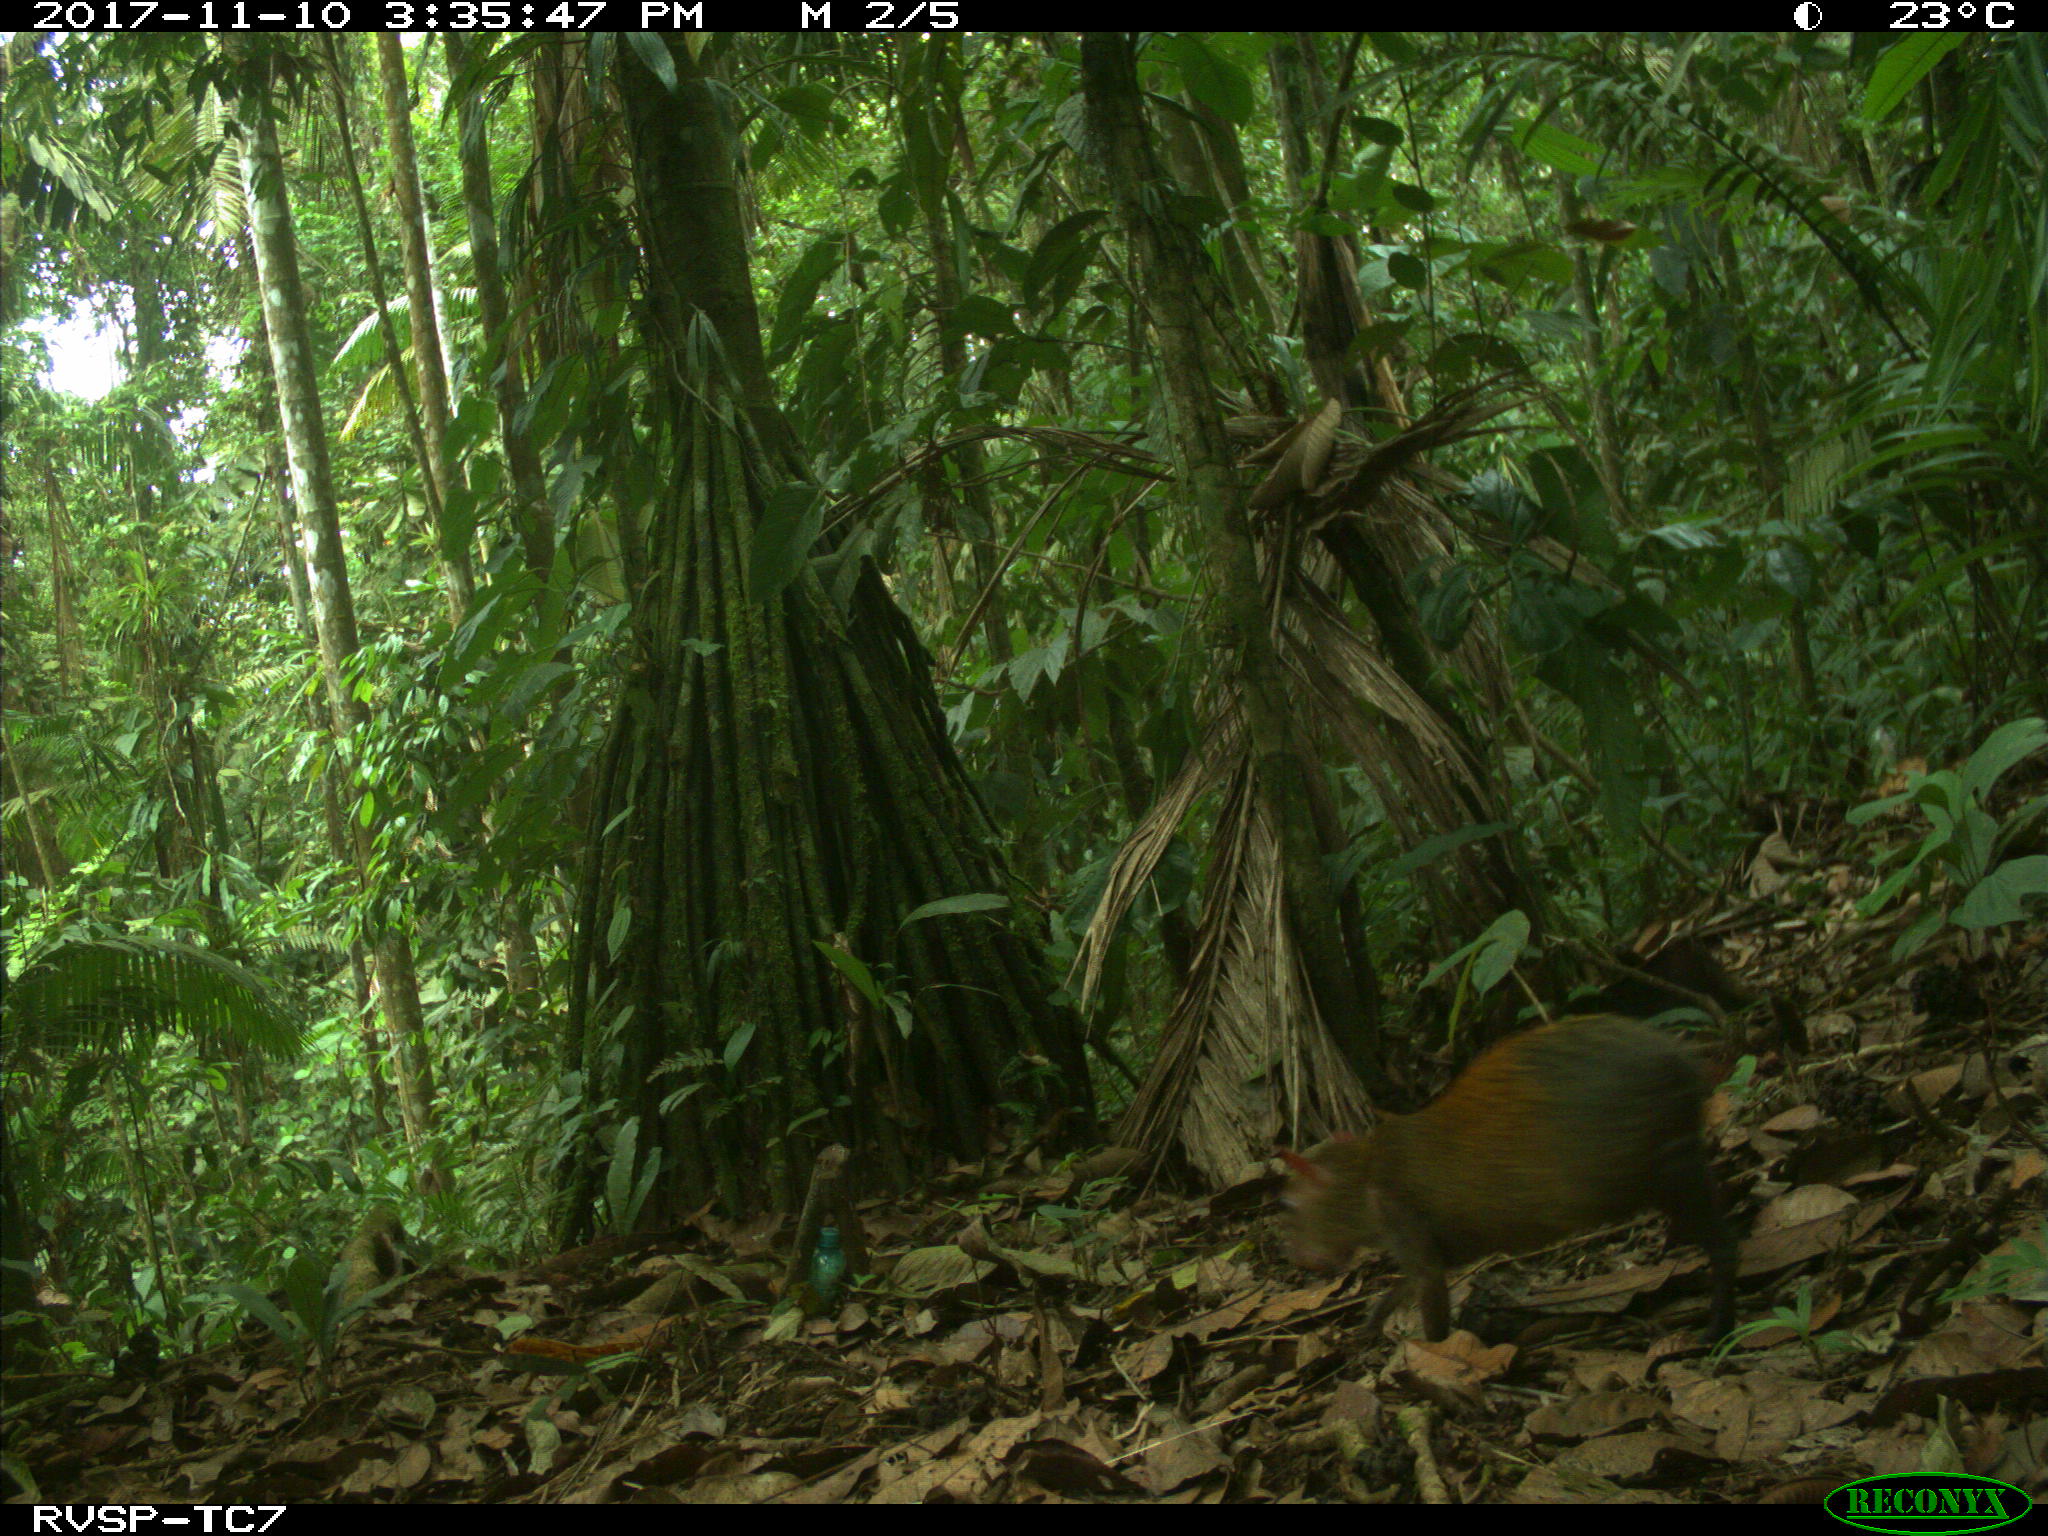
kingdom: Animalia
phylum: Chordata
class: Mammalia
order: Rodentia
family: Dasyproctidae
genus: Dasyprocta
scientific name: Dasyprocta punctata
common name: Central american agouti
